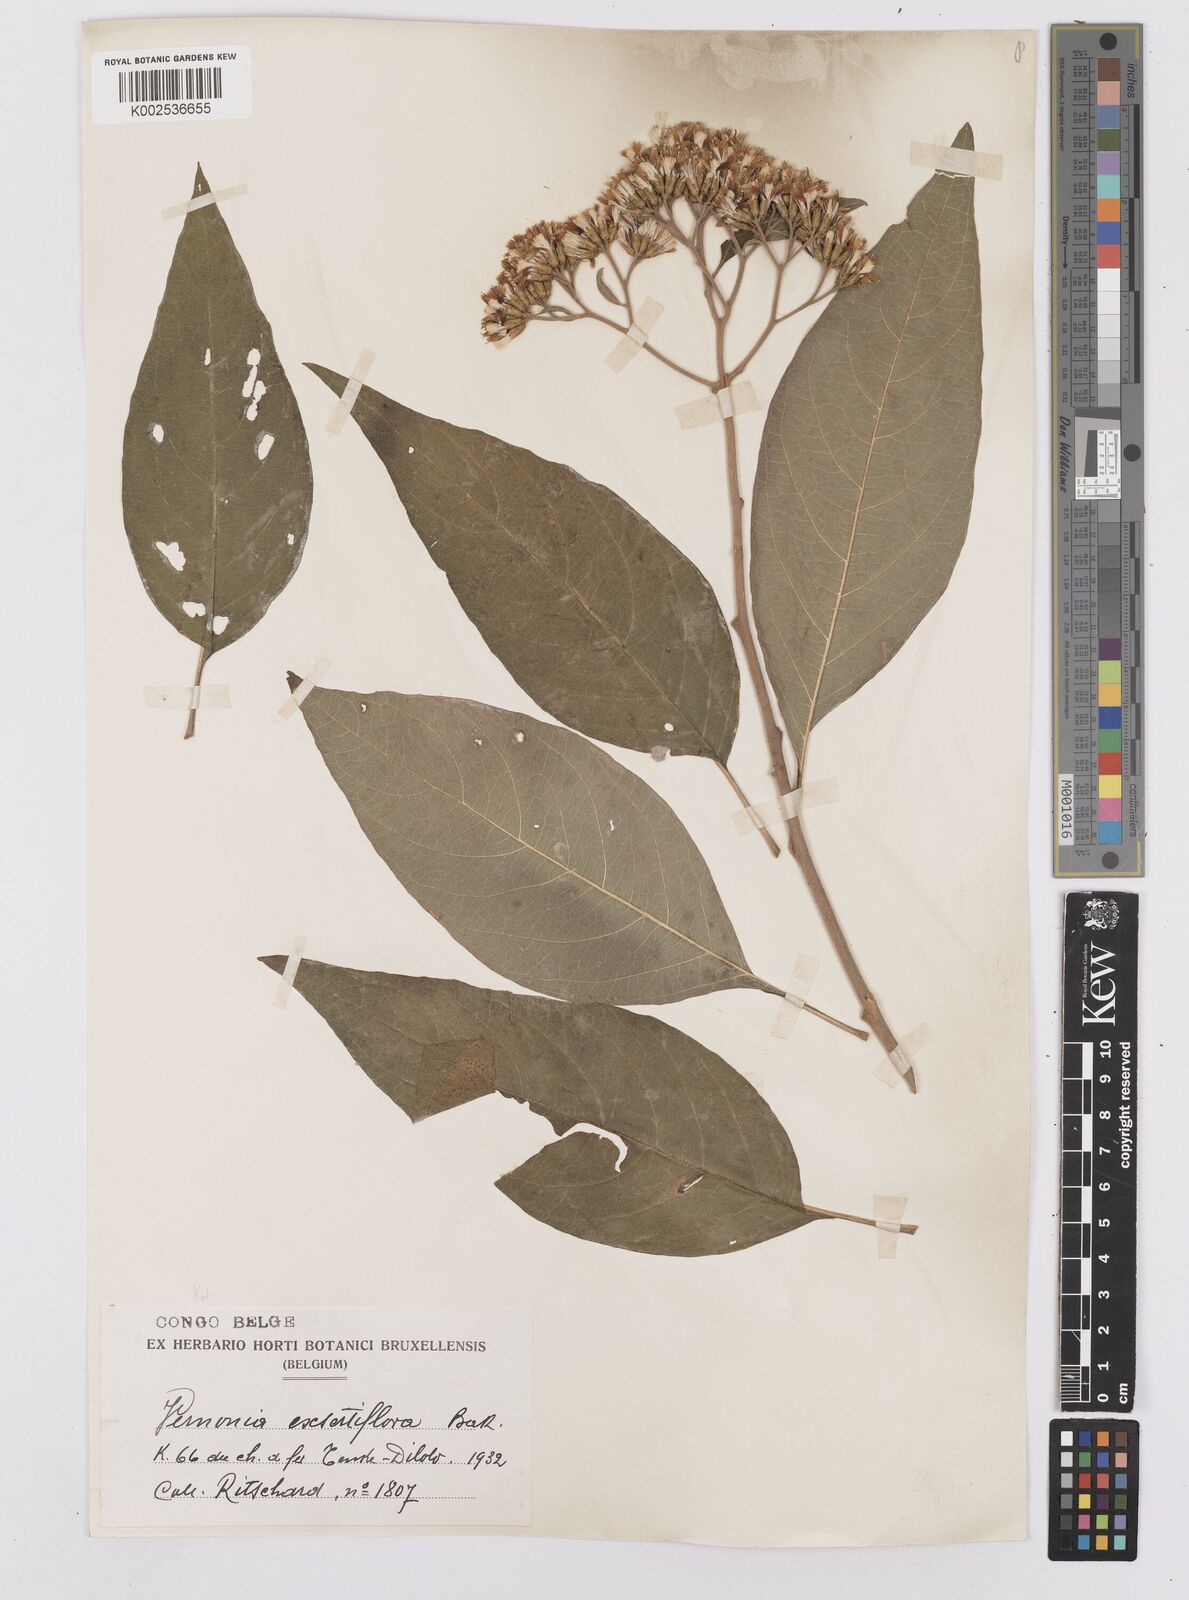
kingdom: Plantae
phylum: Tracheophyta
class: Magnoliopsida
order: Asterales
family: Asteraceae
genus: Gymnanthemum
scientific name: Gymnanthemum exsertiflorum
